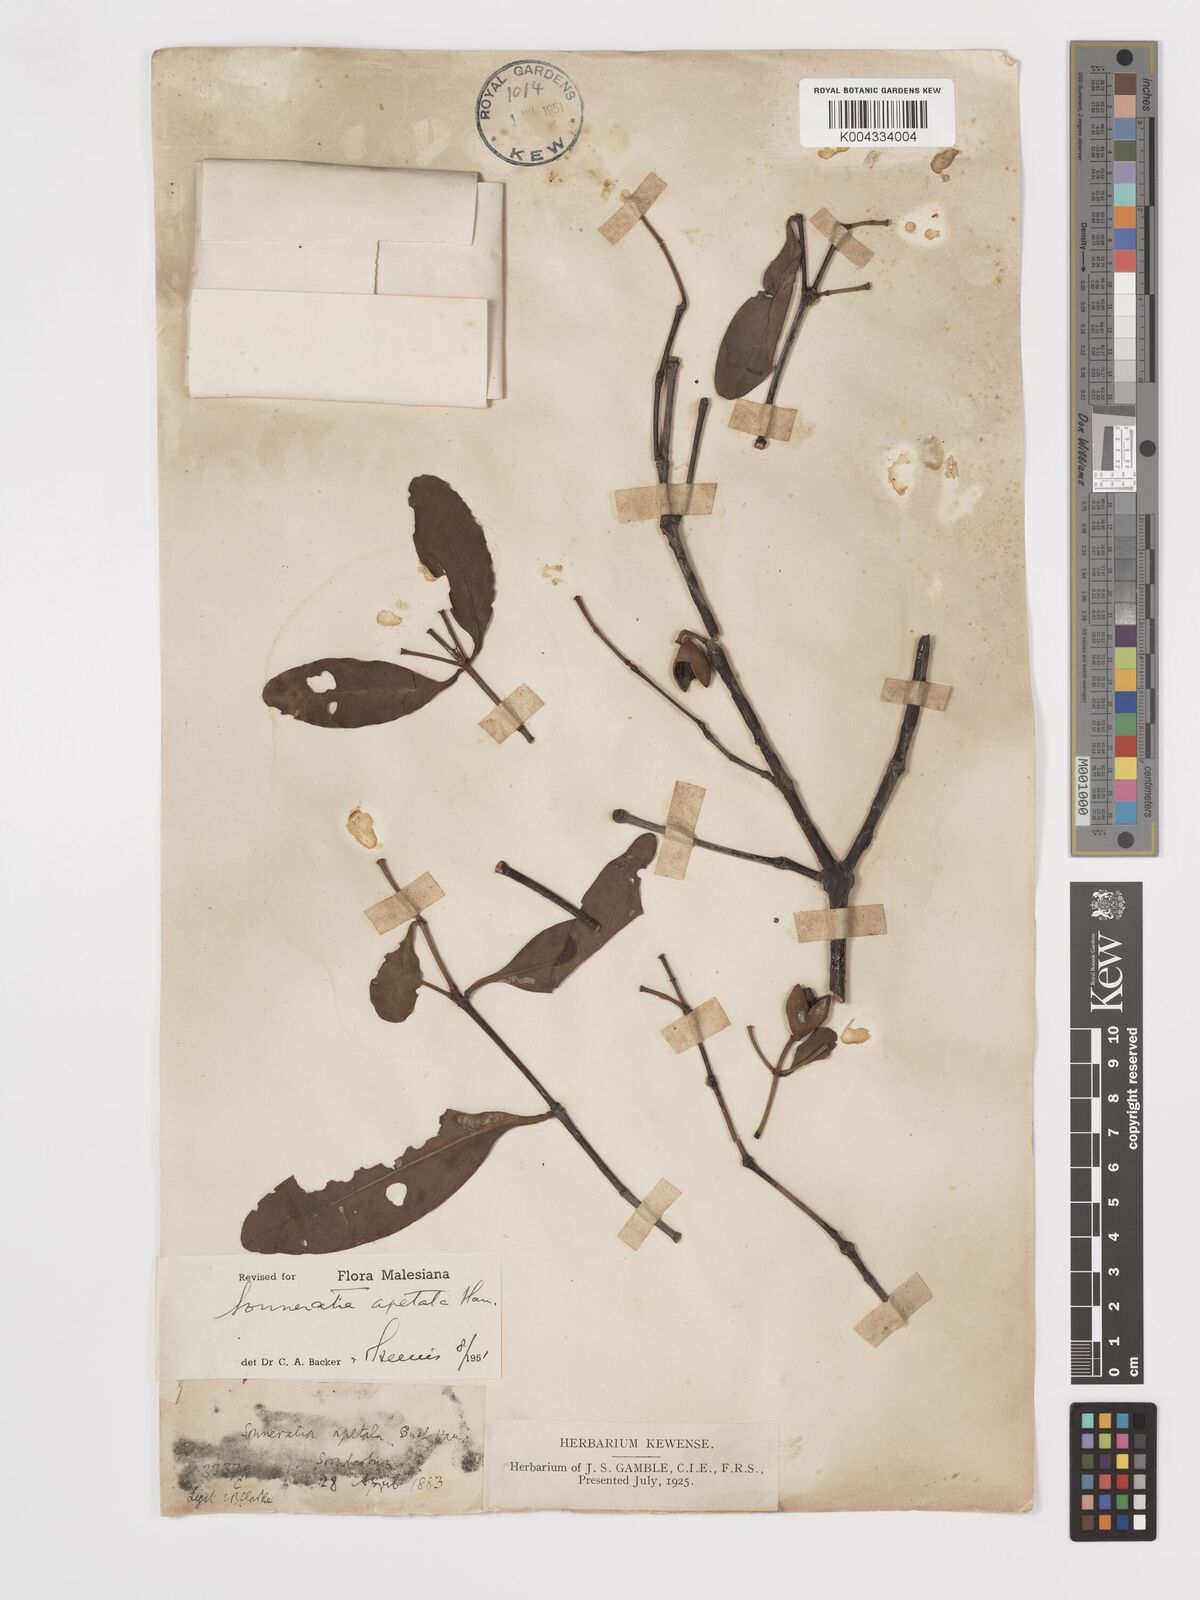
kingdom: Plantae
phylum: Tracheophyta
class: Magnoliopsida
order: Myrtales
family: Lythraceae
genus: Sonneratia
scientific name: Sonneratia apetala
